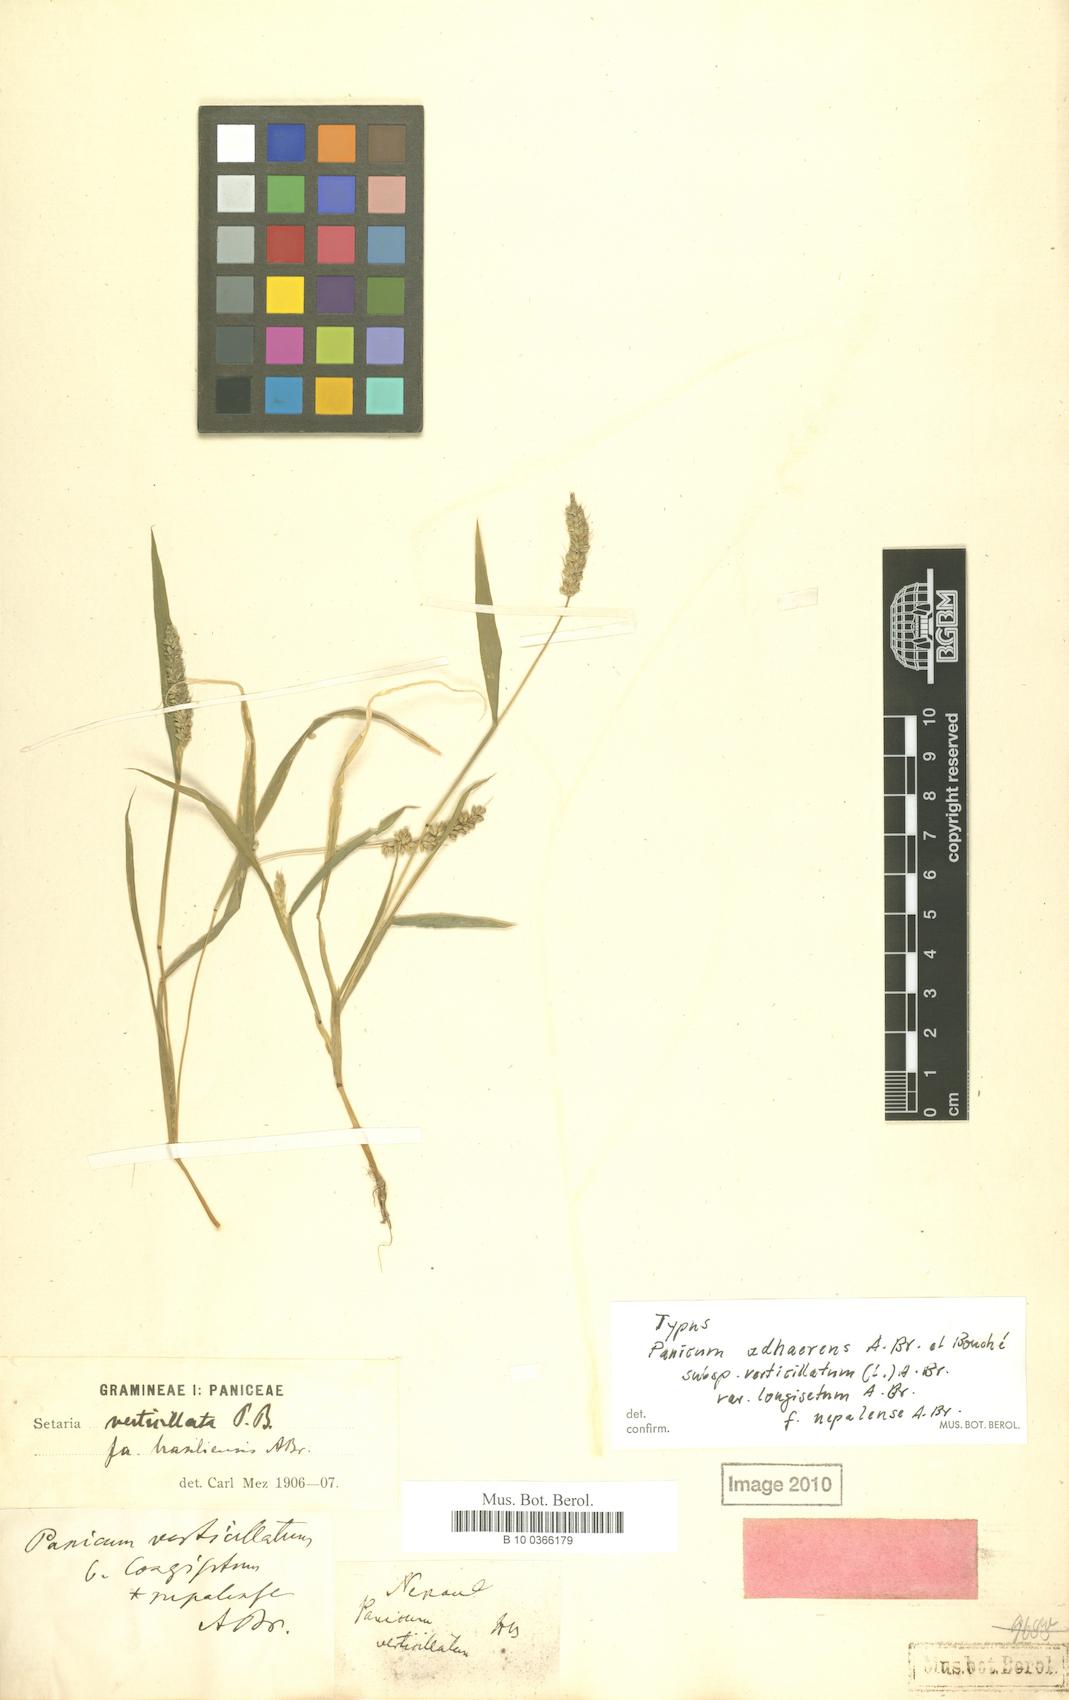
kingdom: Plantae
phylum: Tracheophyta
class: Liliopsida
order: Poales
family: Poaceae
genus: Setaria
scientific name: Setaria adhaerens
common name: Adherent bristle-grass
